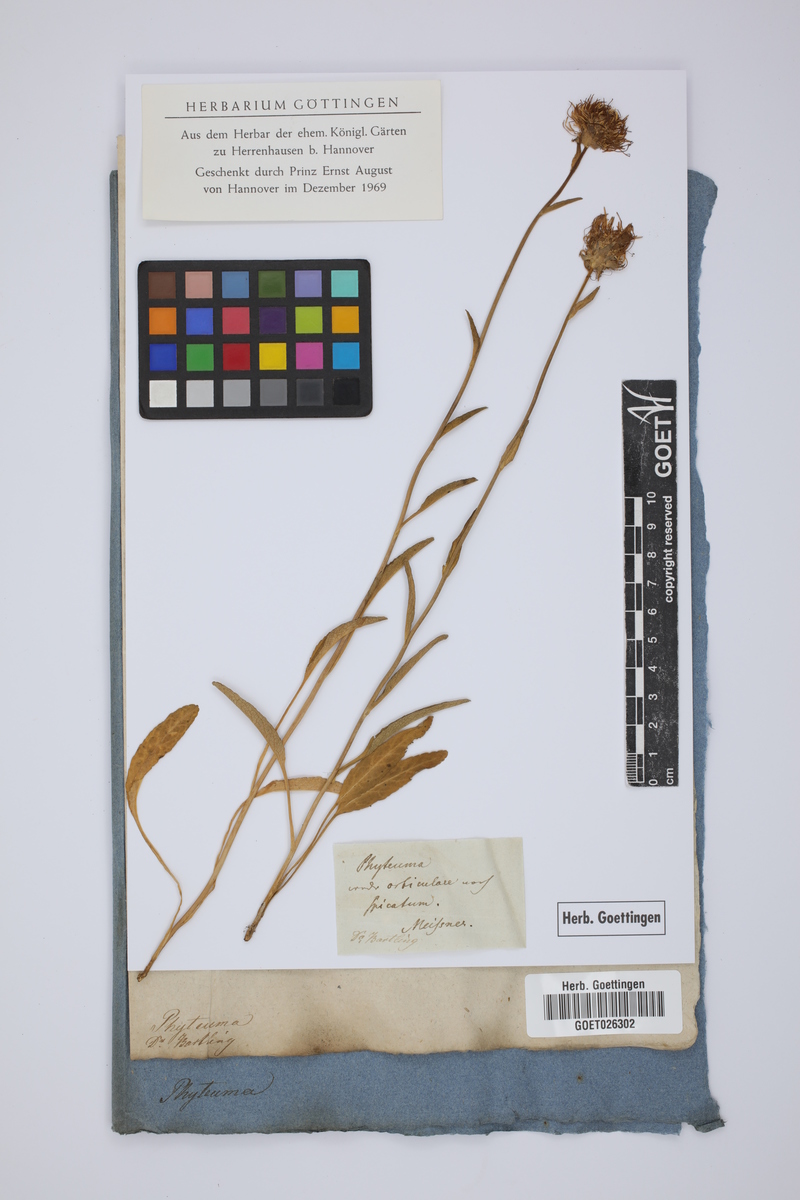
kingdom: Plantae
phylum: Tracheophyta
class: Magnoliopsida
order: Asterales
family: Campanulaceae
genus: Phyteuma
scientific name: Phyteuma orbiculare
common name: Round-headed rampion
